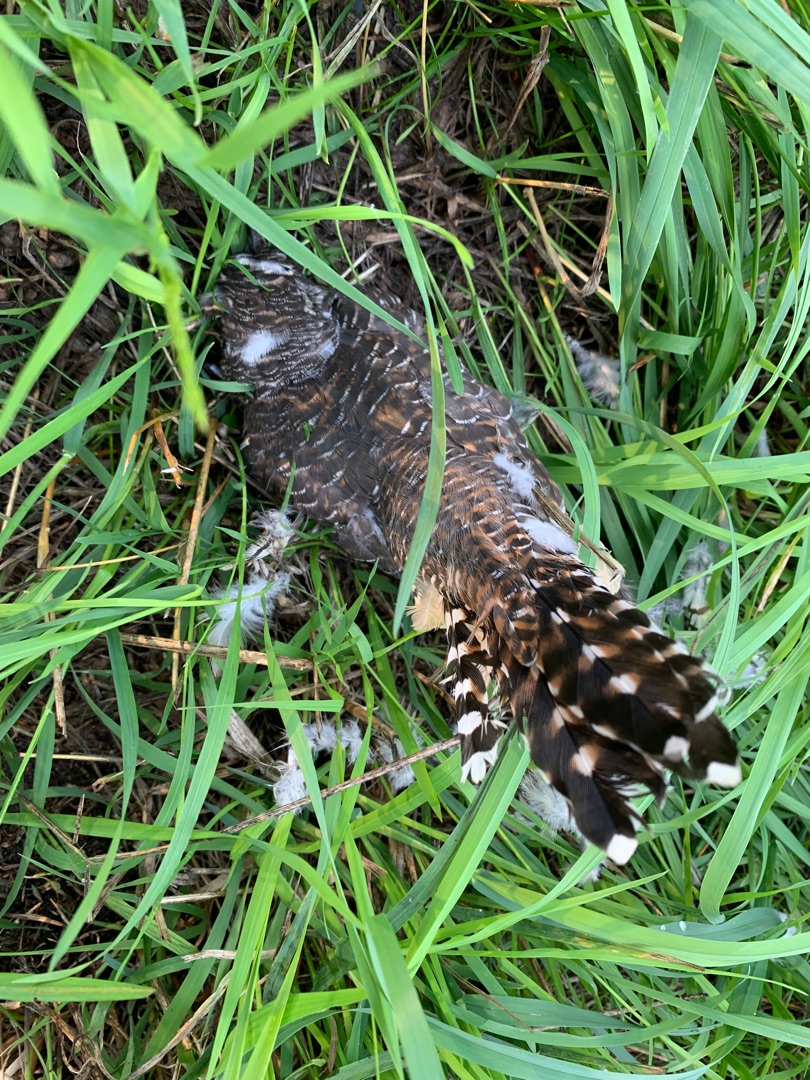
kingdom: Animalia
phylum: Chordata
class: Aves
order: Cuculiformes
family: Cuculidae
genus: Cuculus
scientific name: Cuculus canorus
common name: Gøg
